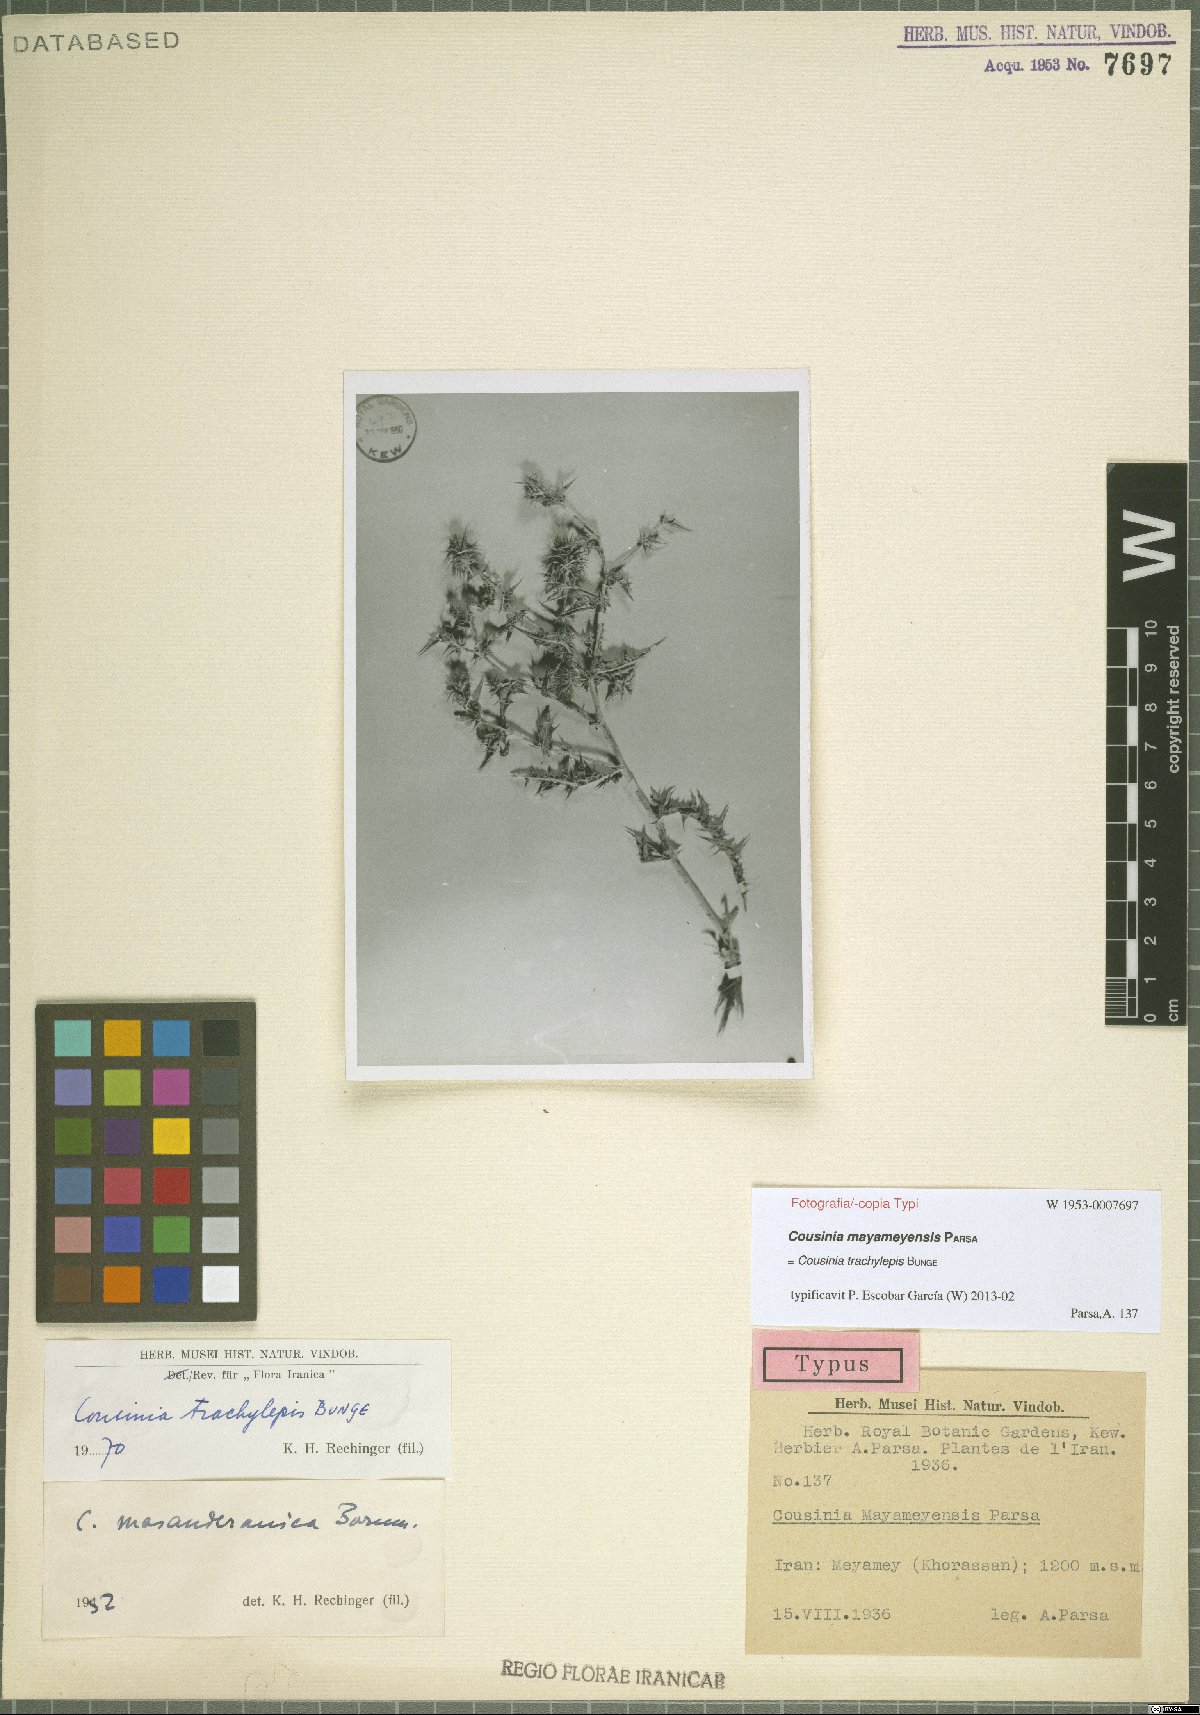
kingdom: Plantae
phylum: Tracheophyta
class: Magnoliopsida
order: Asterales
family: Asteraceae
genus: Cousinia
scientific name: Cousinia trachylepis
